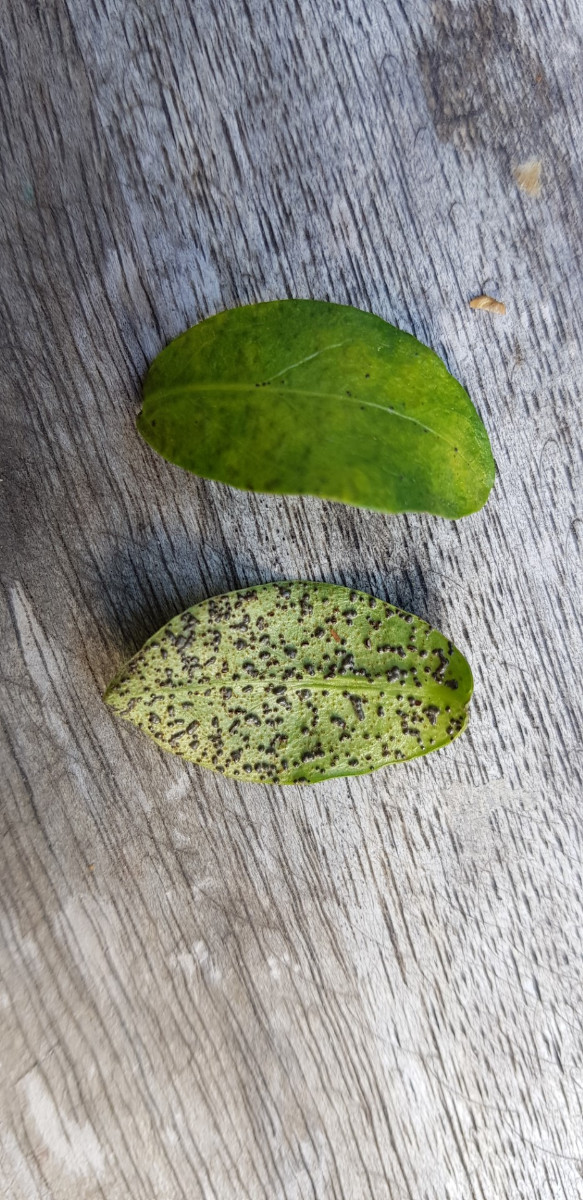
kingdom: Fungi
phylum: Basidiomycota
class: Pucciniomycetes
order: Pucciniales
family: Pucciniaceae
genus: Puccinia
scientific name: Puccinia cribrata
